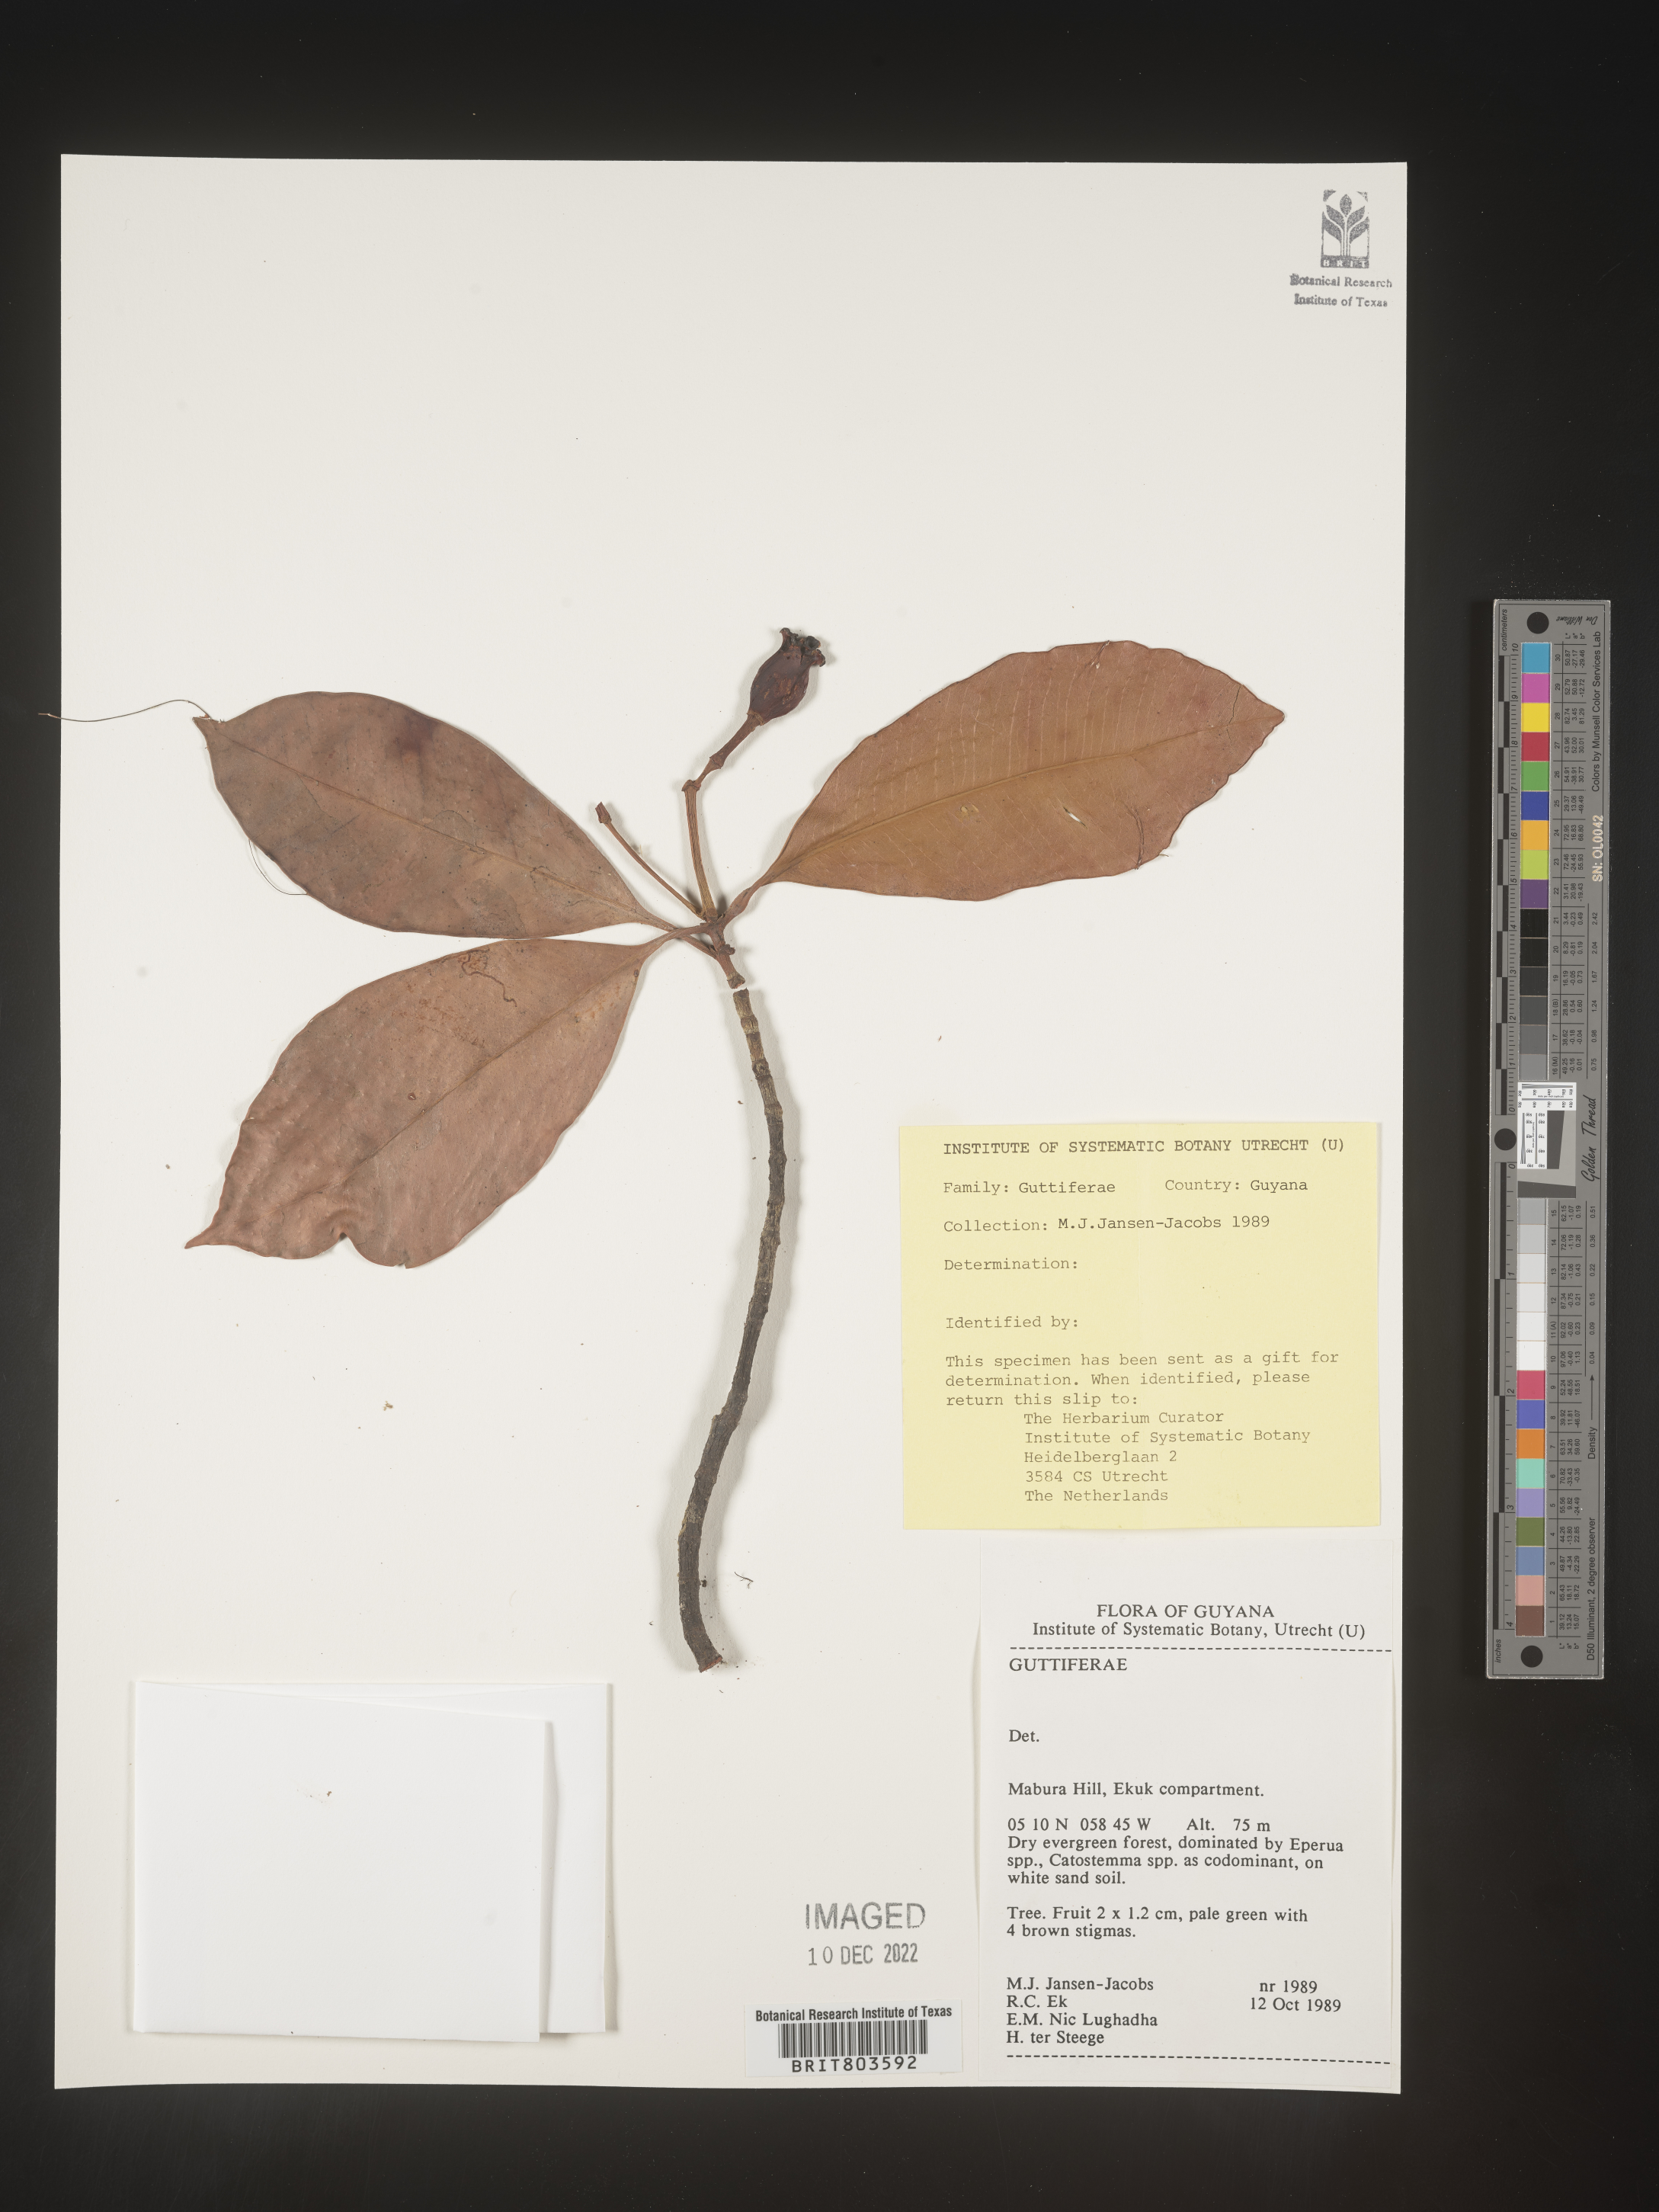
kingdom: Plantae
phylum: Tracheophyta
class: Magnoliopsida
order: Malpighiales
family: Clusiaceae
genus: Tovomita
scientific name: Tovomita
